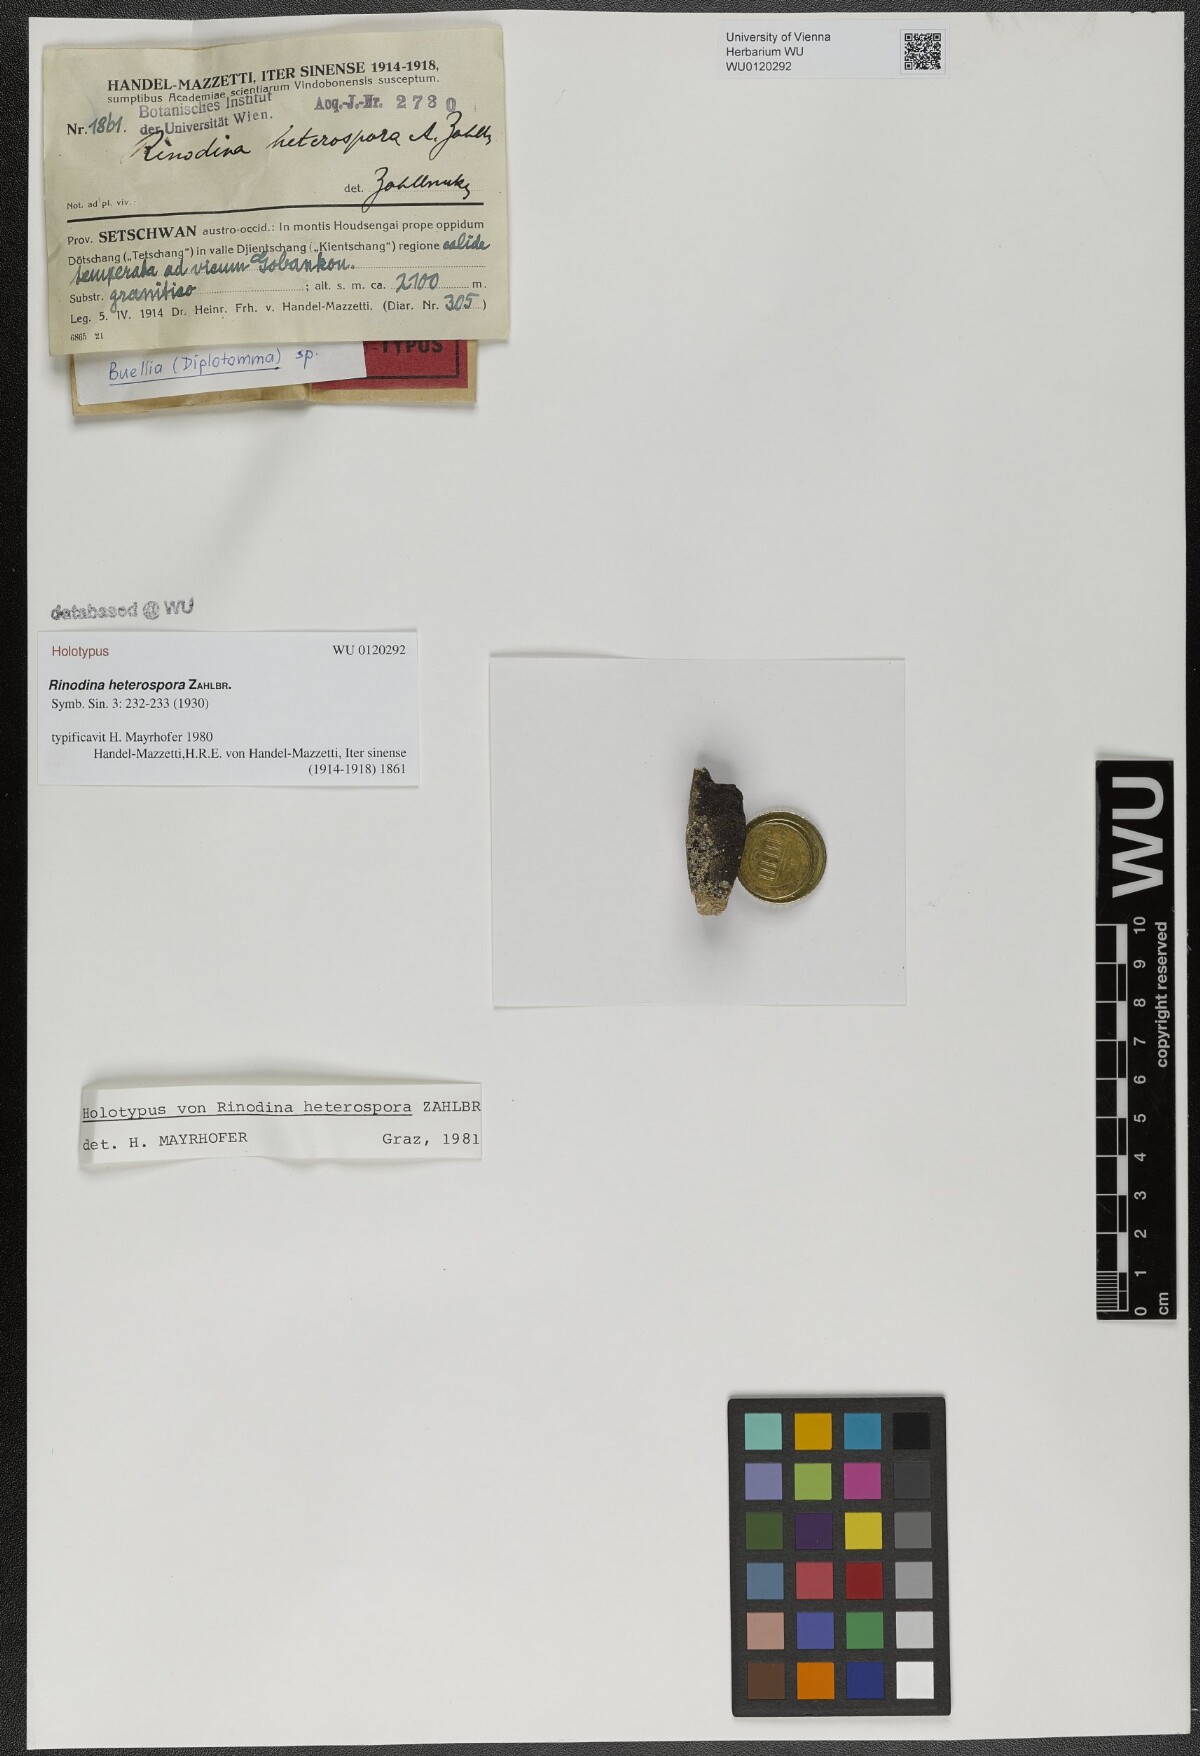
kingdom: Fungi
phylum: Ascomycota
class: Lecanoromycetes
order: Caliciales
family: Physciaceae
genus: Rinodina
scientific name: Rinodina
